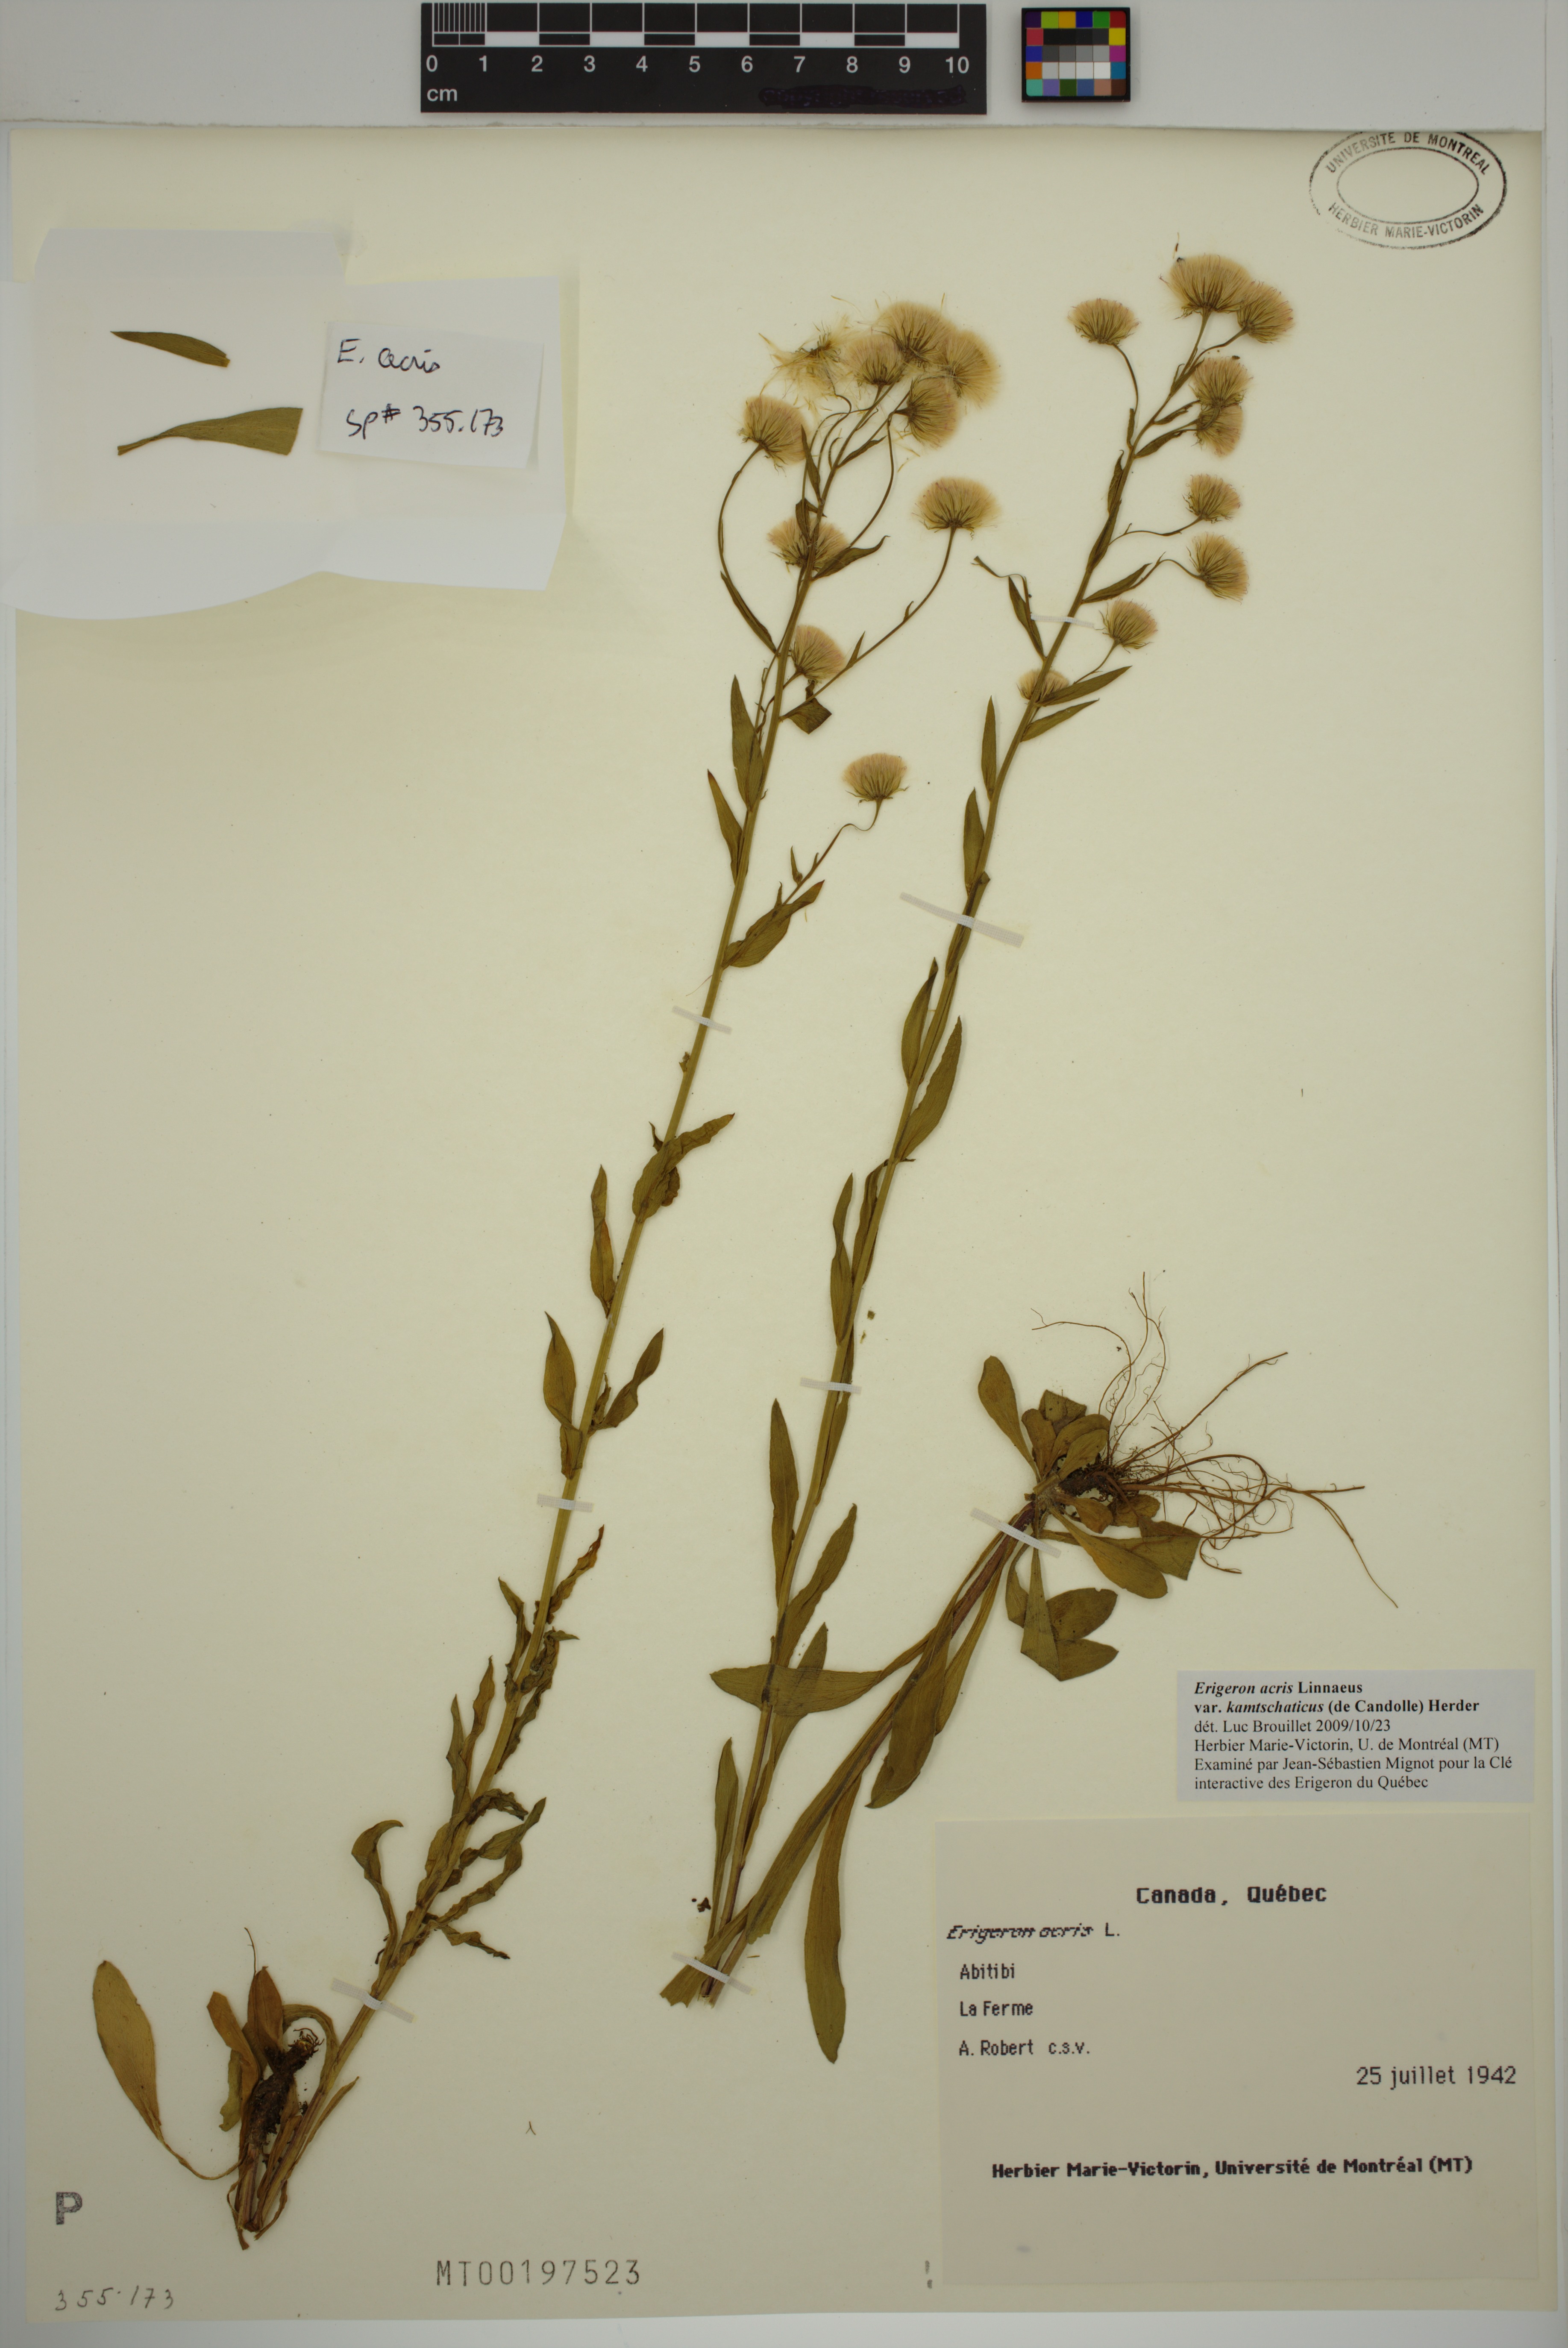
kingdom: Plantae
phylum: Tracheophyta
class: Magnoliopsida
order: Asterales
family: Asteraceae
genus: Erigeron
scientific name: Erigeron kamtschaticus
